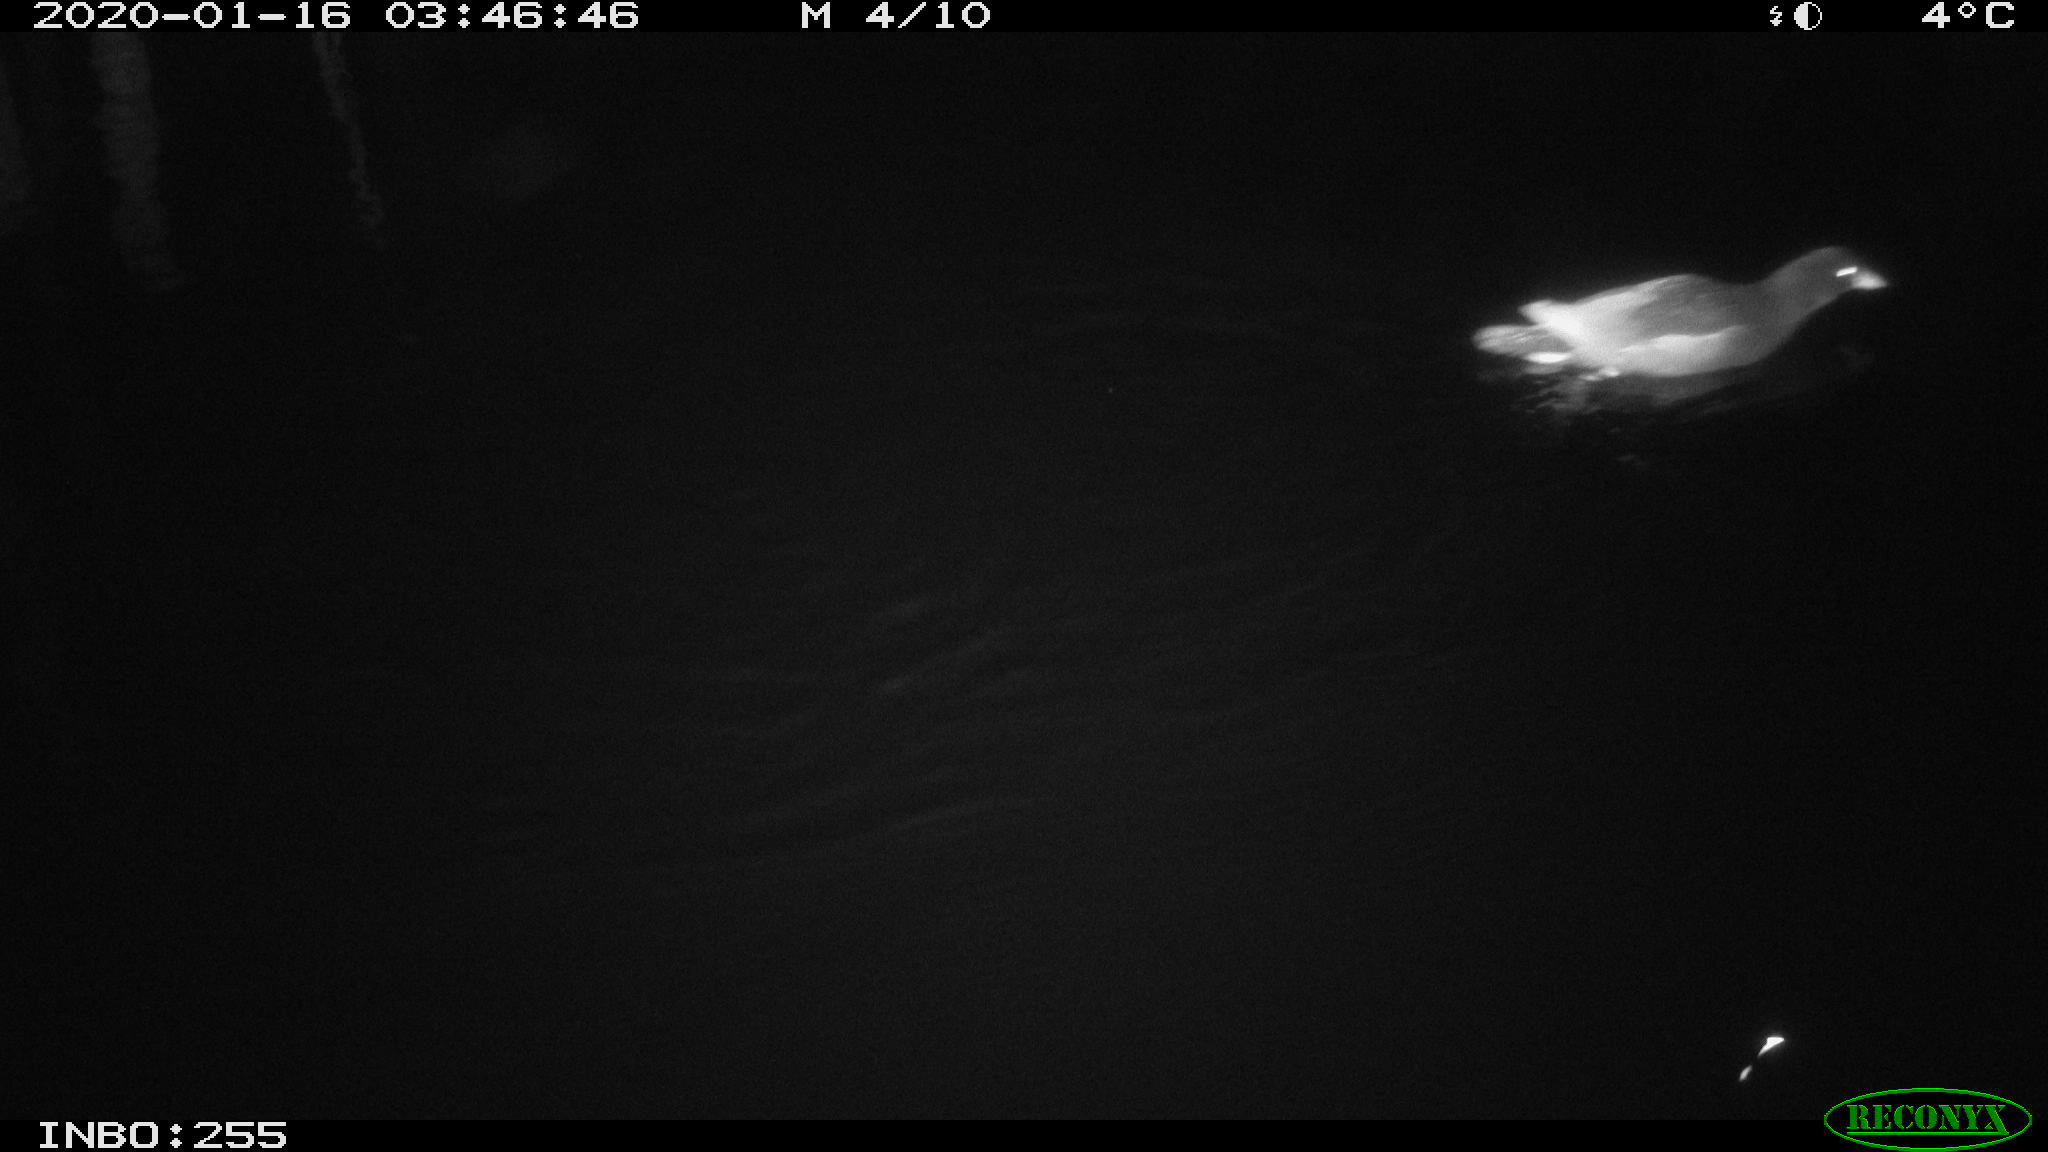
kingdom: Animalia
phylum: Chordata
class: Aves
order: Gruiformes
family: Rallidae
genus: Gallinula
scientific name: Gallinula chloropus
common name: Common moorhen
